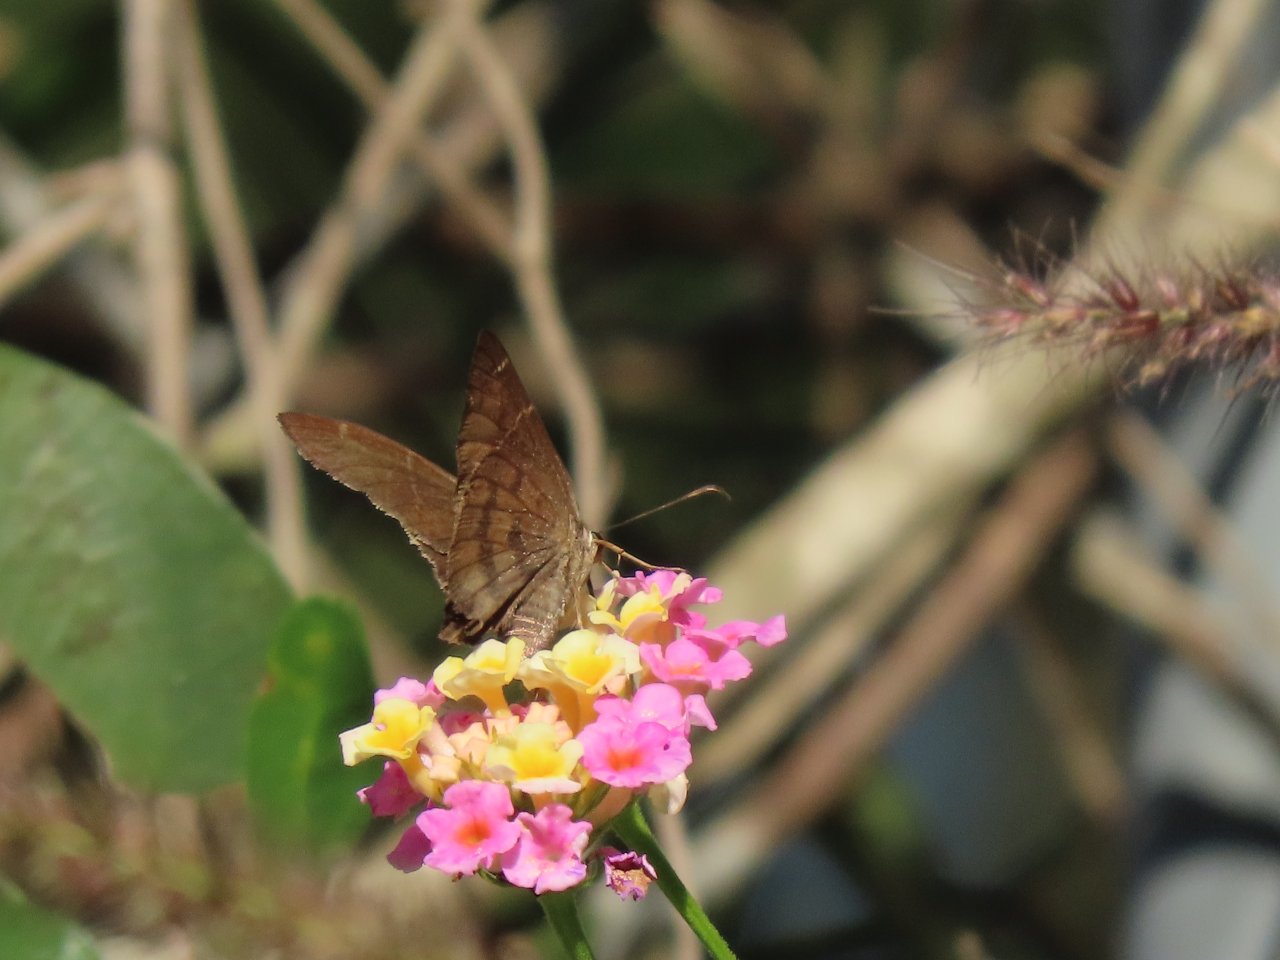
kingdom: Animalia
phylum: Arthropoda
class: Insecta
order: Lepidoptera
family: Hesperiidae
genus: Urbanus
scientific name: Urbanus procne
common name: Brown Longtail
